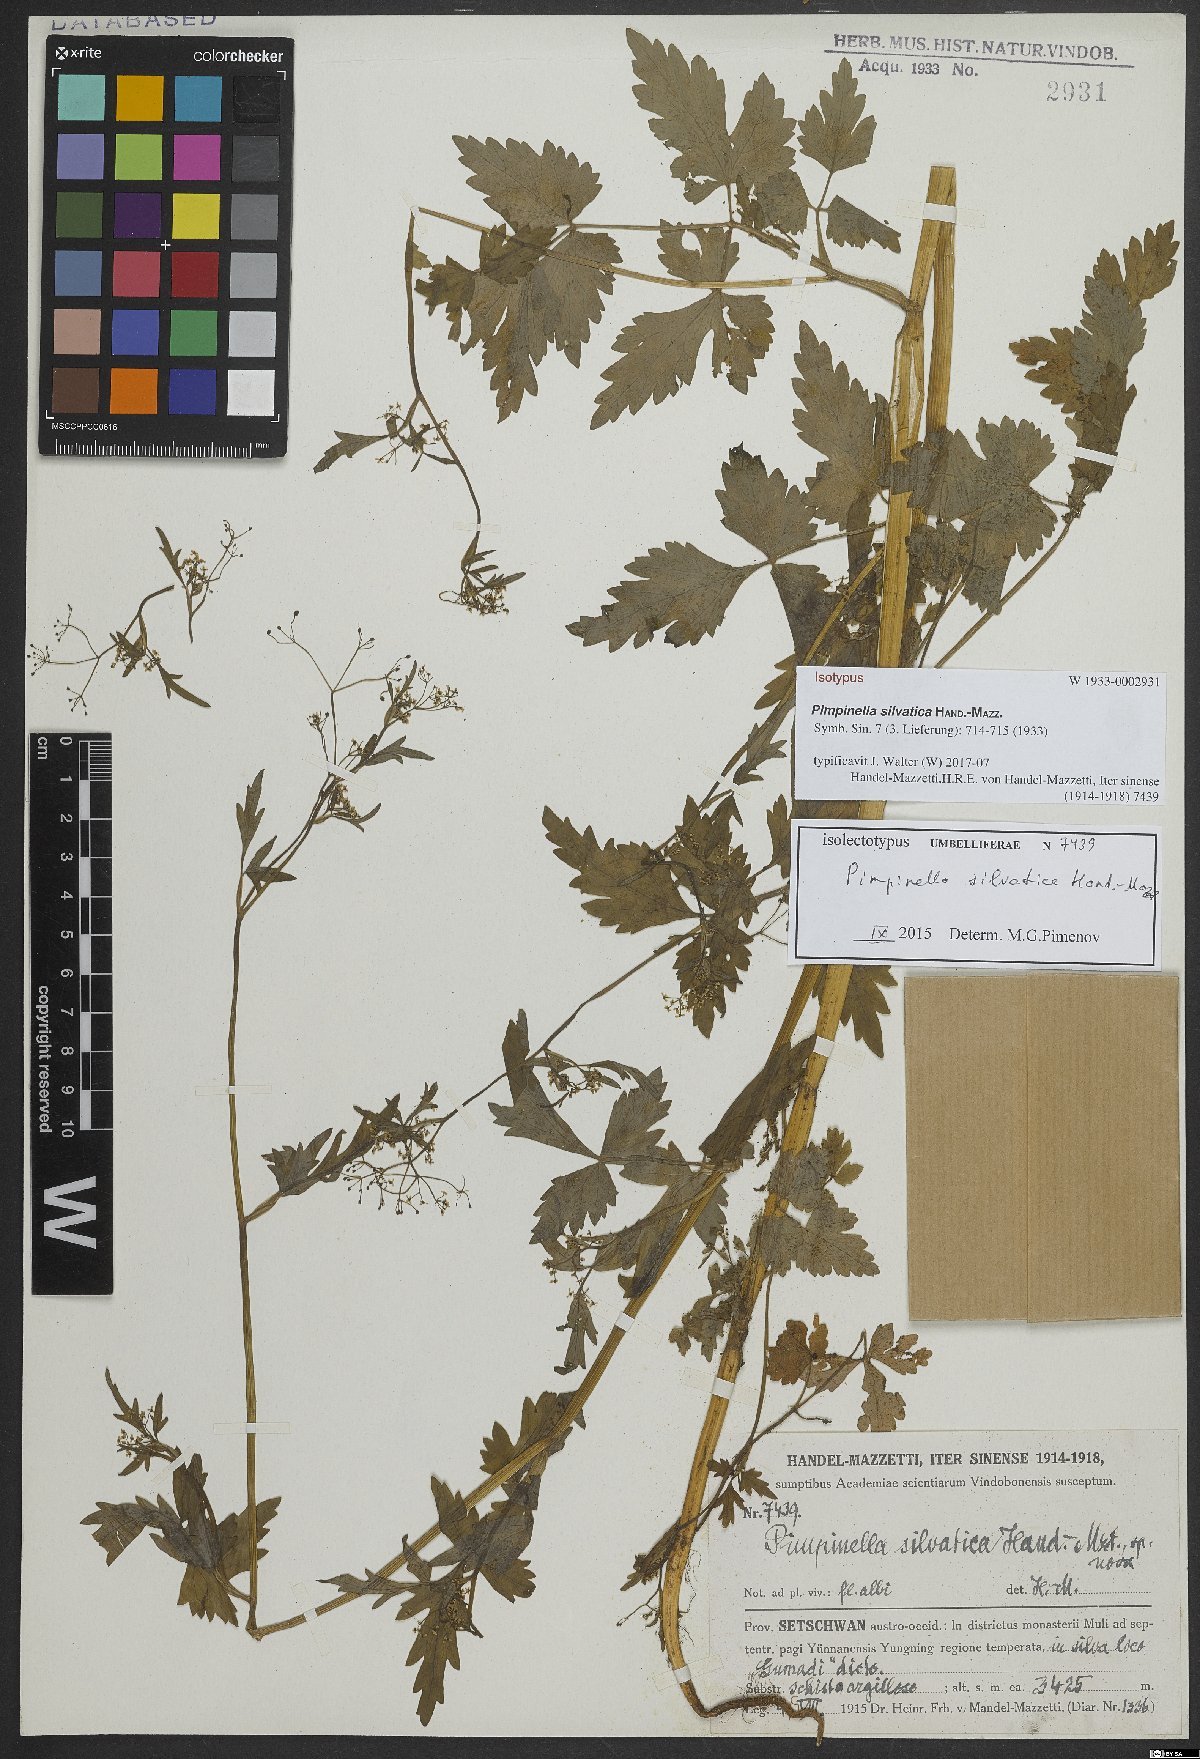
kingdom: Plantae
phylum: Tracheophyta
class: Magnoliopsida
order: Apiales
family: Apiaceae
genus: Pimpinella
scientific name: Pimpinella silvatica
